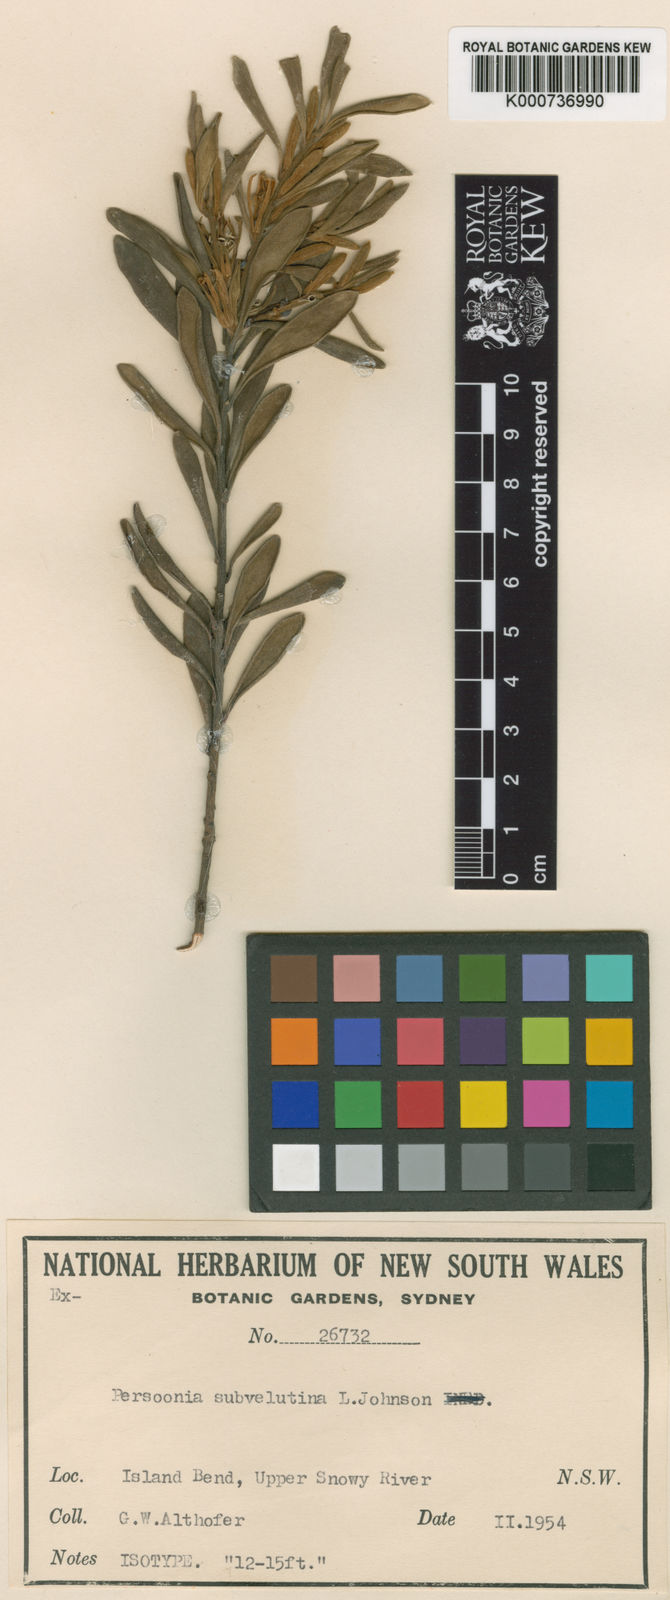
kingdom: Plantae
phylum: Tracheophyta
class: Magnoliopsida
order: Proteales
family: Proteaceae
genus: Persoonia
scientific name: Persoonia subvelutina
